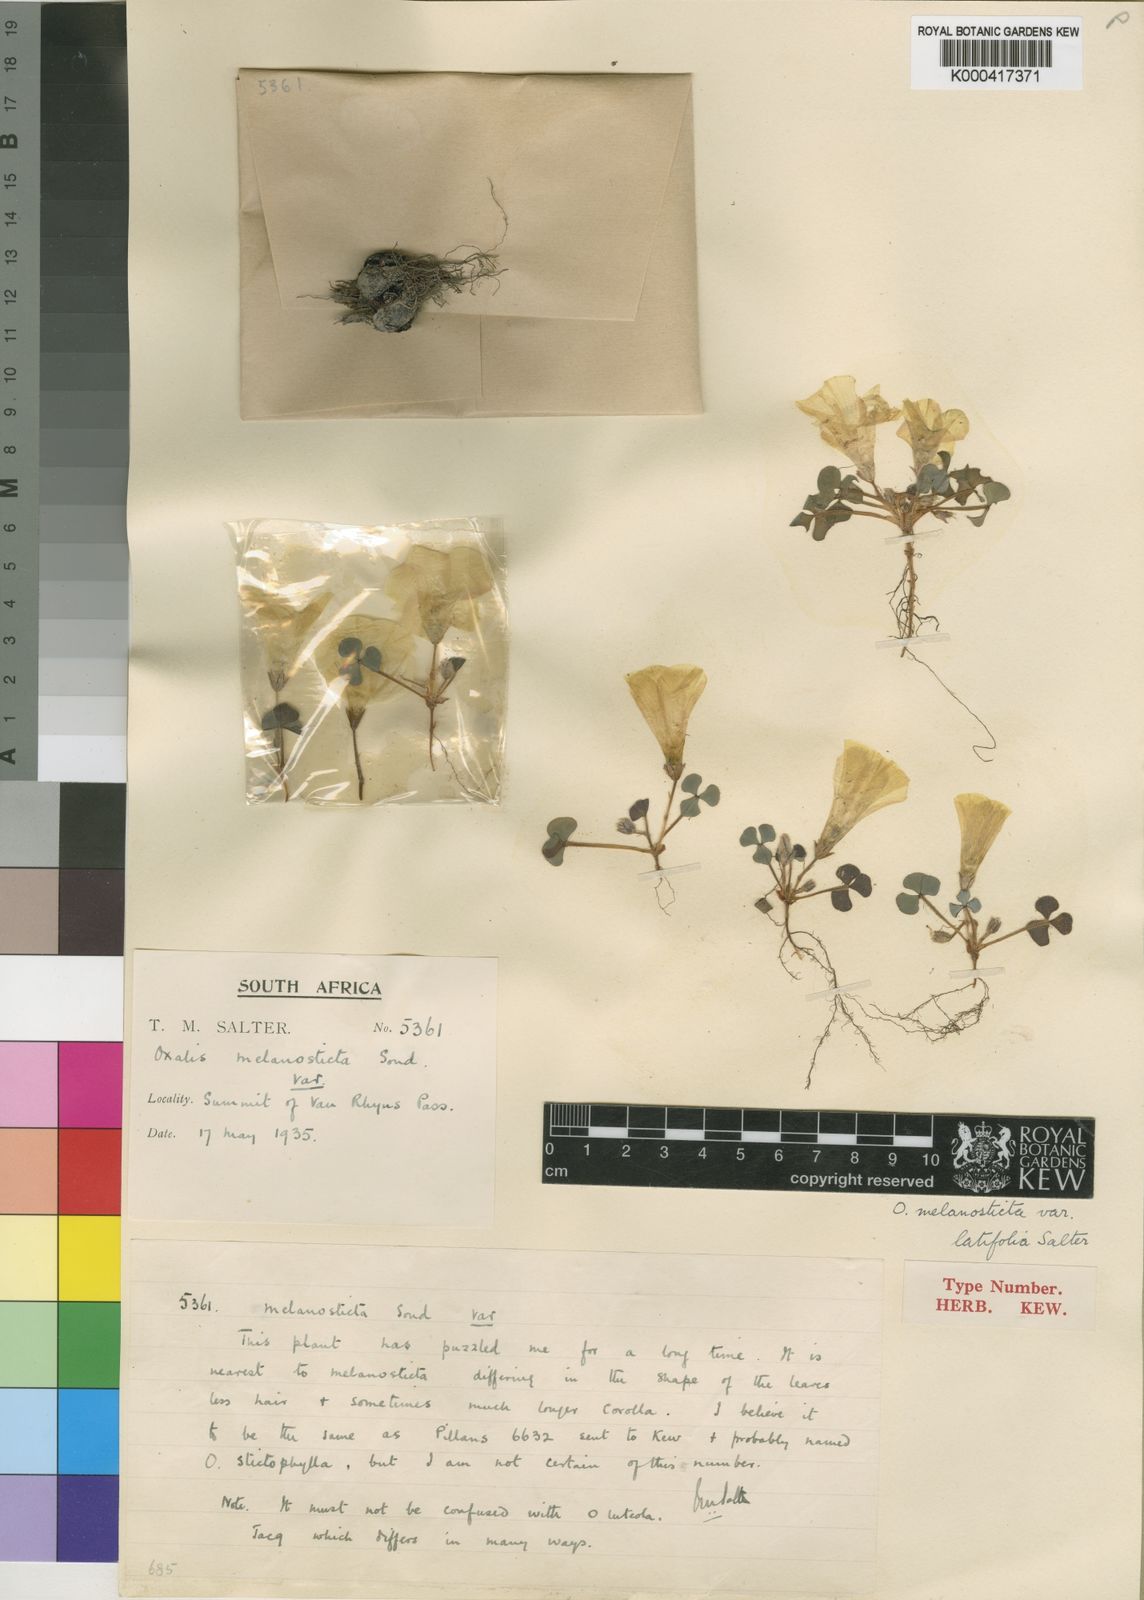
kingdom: Plantae
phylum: Tracheophyta
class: Magnoliopsida
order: Oxalidales
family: Oxalidaceae
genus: Oxalis
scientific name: Oxalis melanosticta
